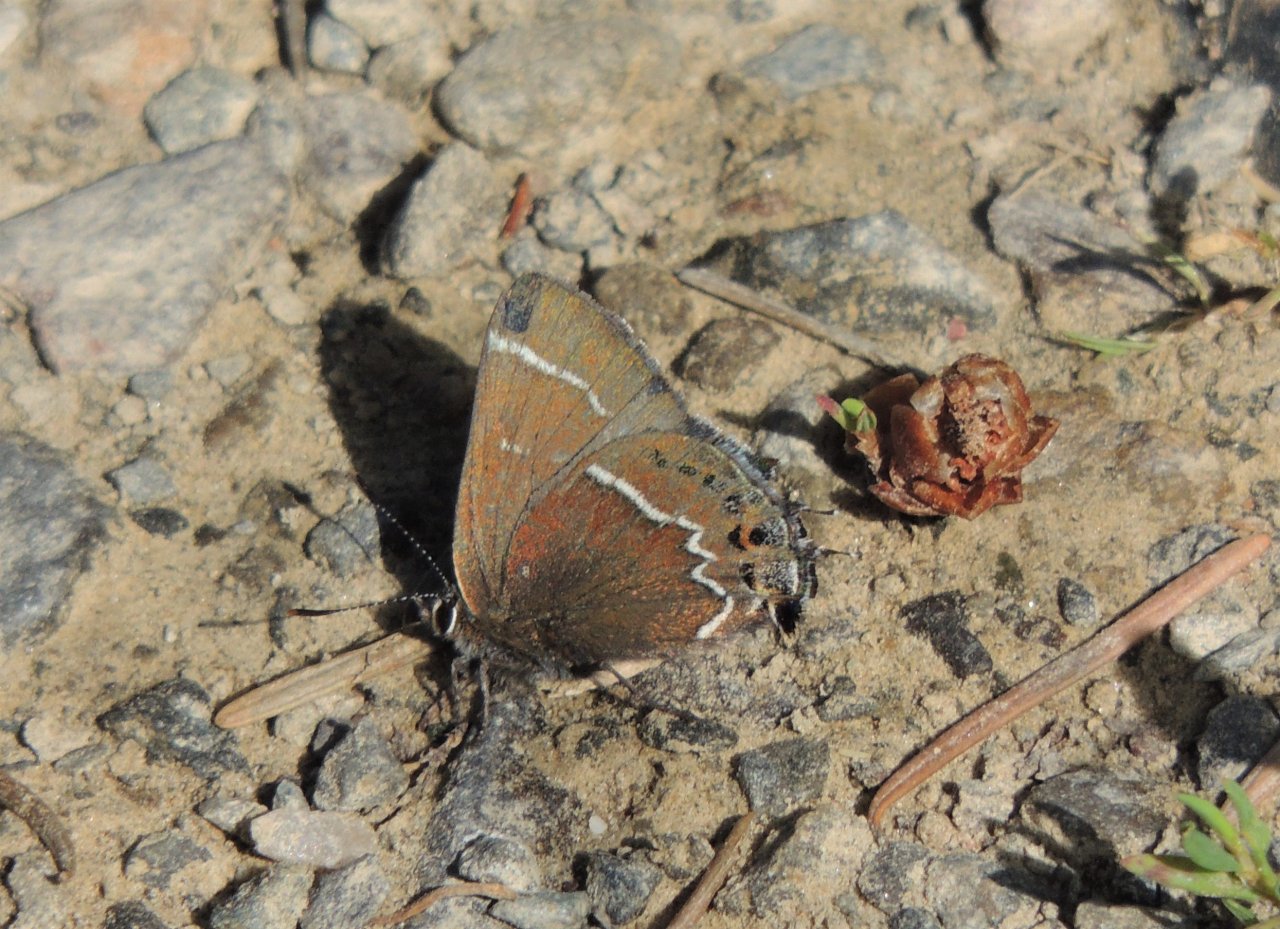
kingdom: Animalia
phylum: Arthropoda
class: Insecta
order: Lepidoptera
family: Lycaenidae
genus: Mitoura
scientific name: Mitoura spinetorum
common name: Thicket Hairstreak
